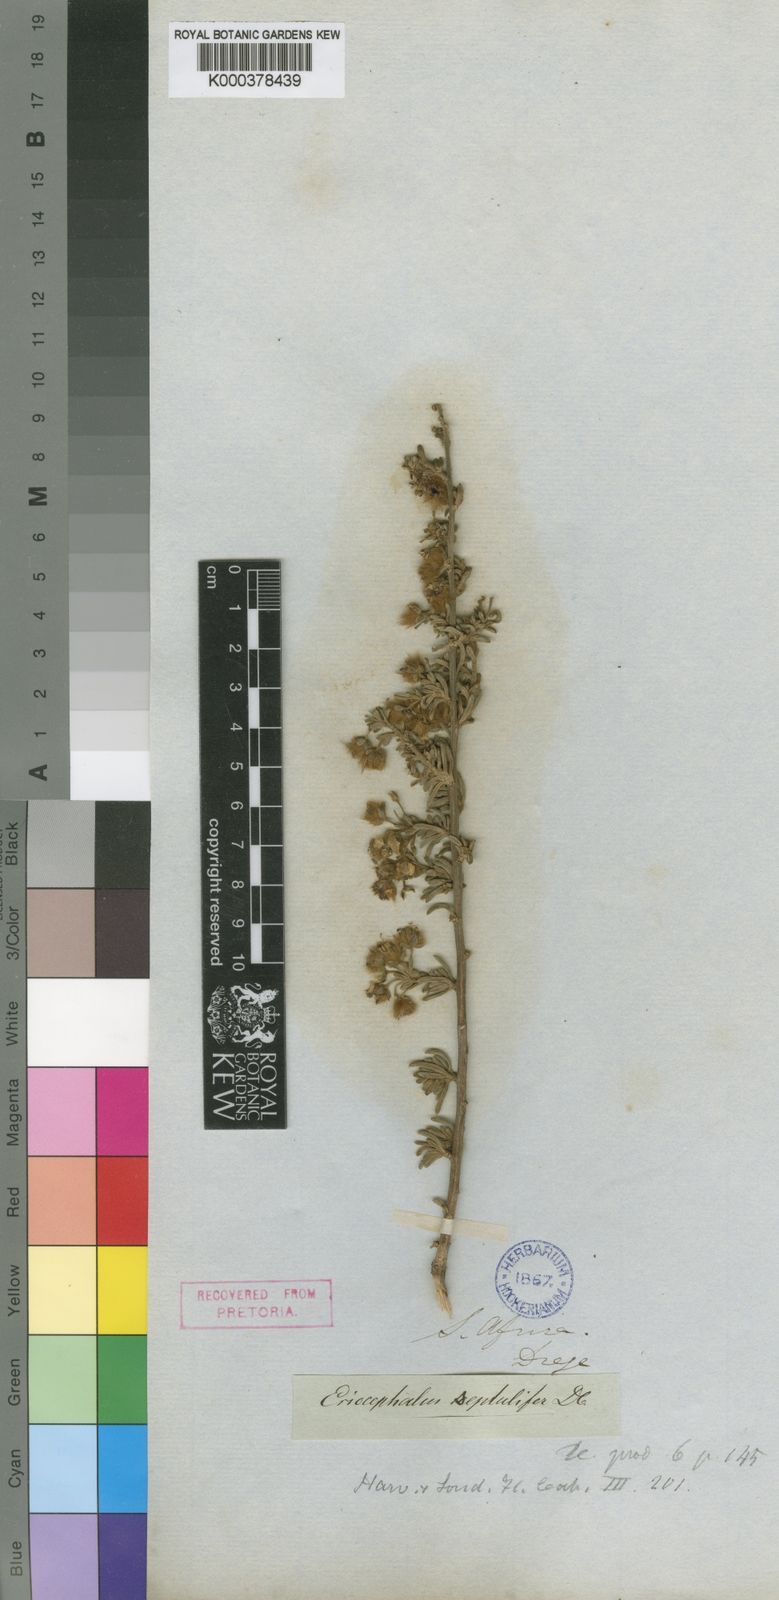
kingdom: Plantae
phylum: Tracheophyta
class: Magnoliopsida
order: Asterales
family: Asteraceae
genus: Eriocephalus
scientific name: Eriocephalus africanus
